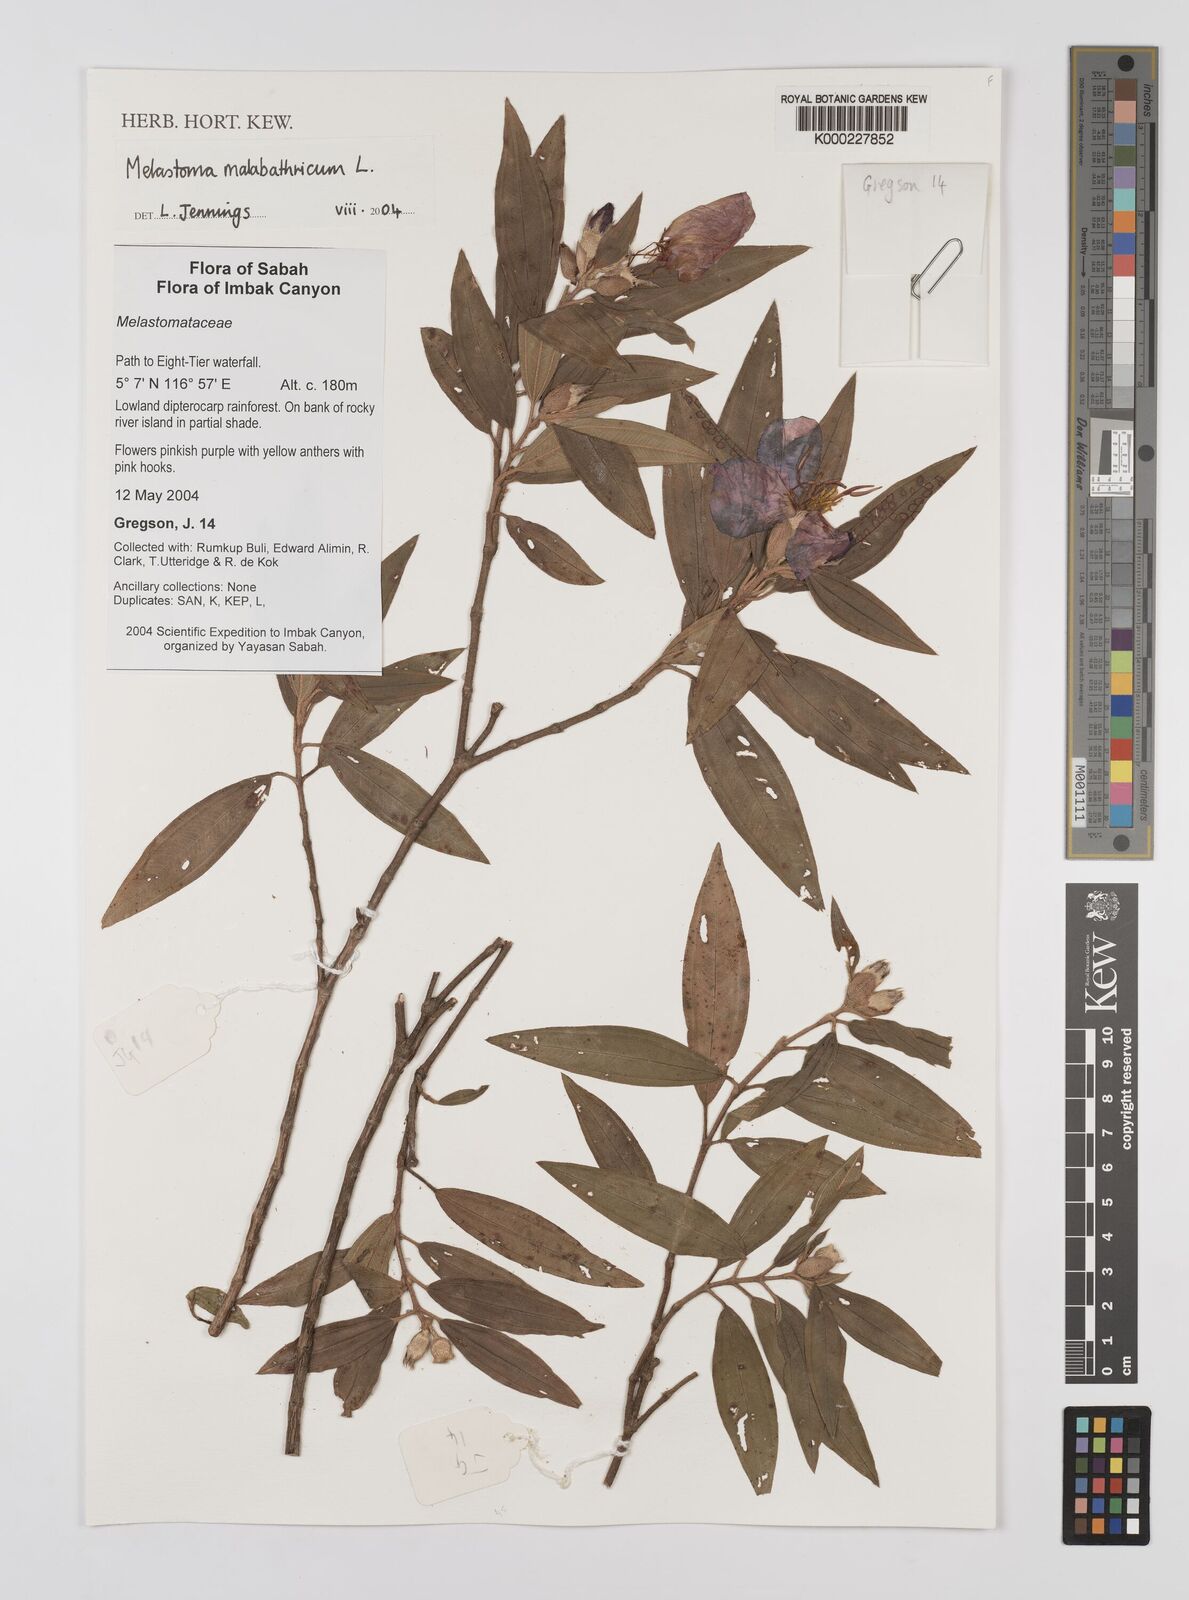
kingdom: Plantae
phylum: Tracheophyta
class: Magnoliopsida
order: Myrtales
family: Melastomataceae
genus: Melastoma
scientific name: Melastoma malabathricum
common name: Indian-rhododendron
